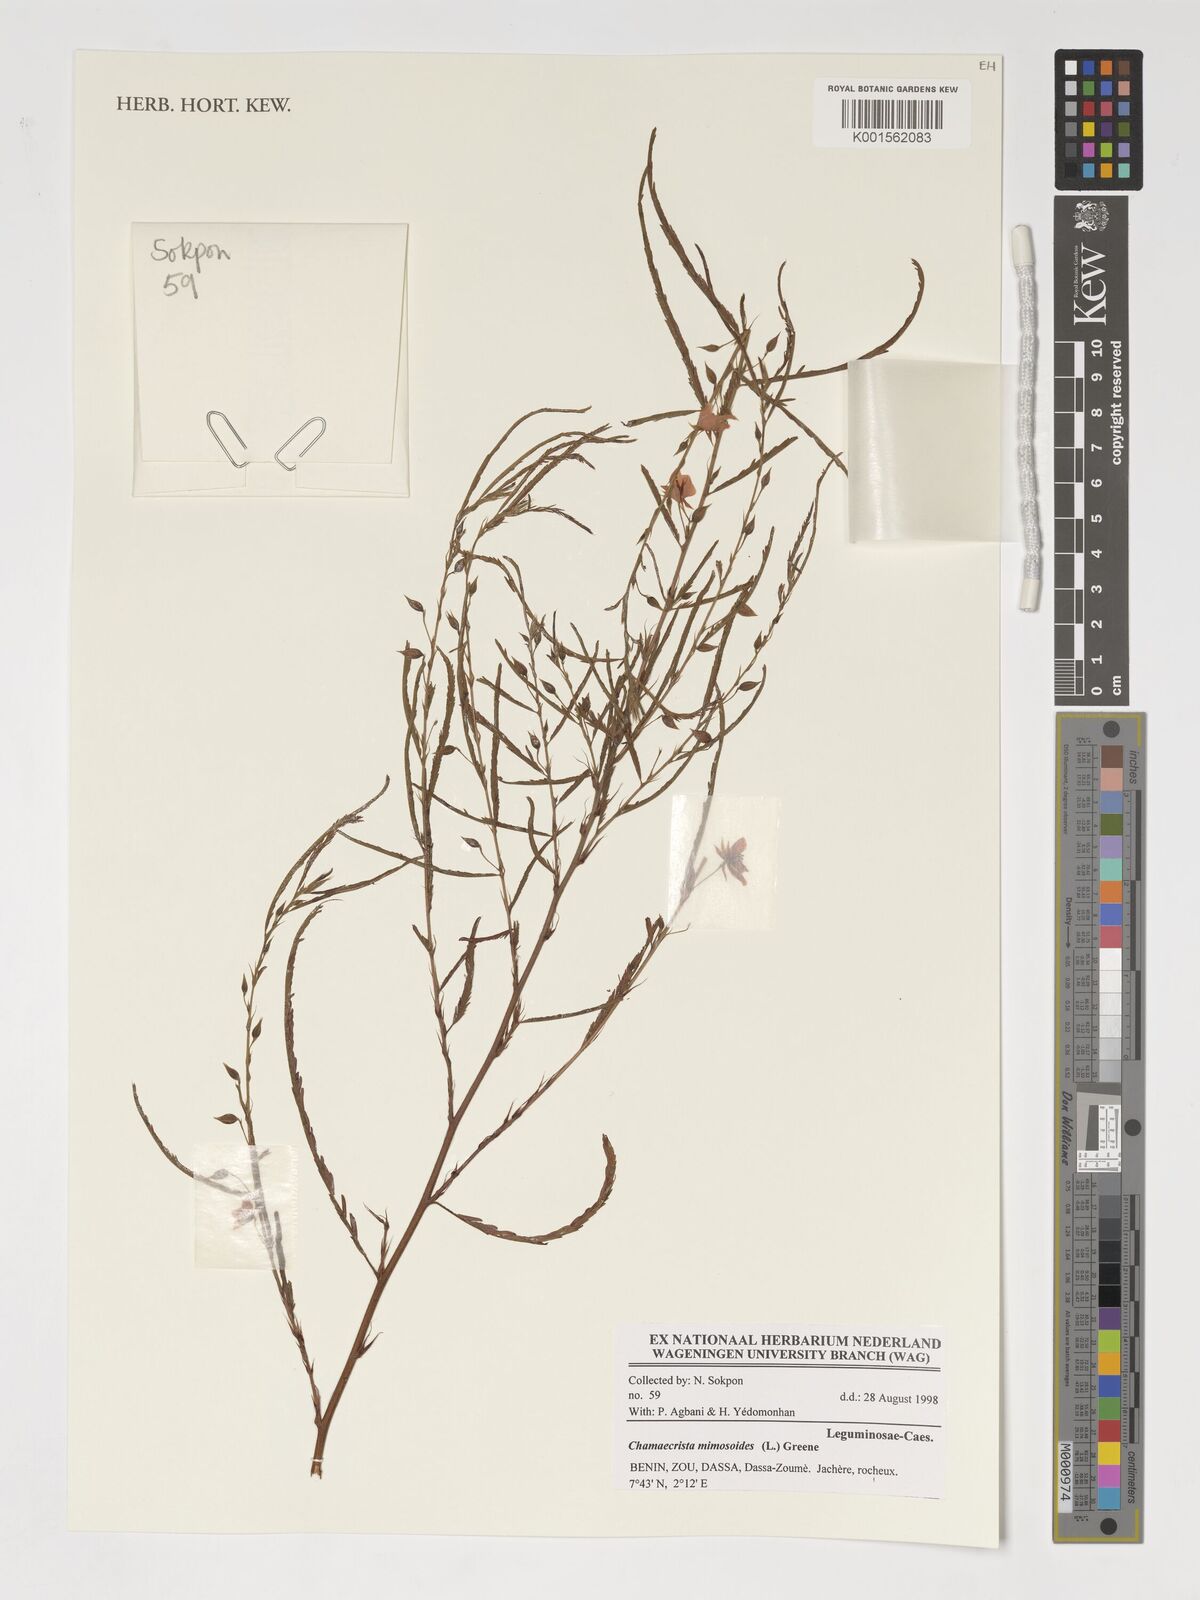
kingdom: Plantae
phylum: Tracheophyta
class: Magnoliopsida
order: Fabales
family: Fabaceae
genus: Chamaecrista
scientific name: Chamaecrista mimosoides
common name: Fish-bone cassia
